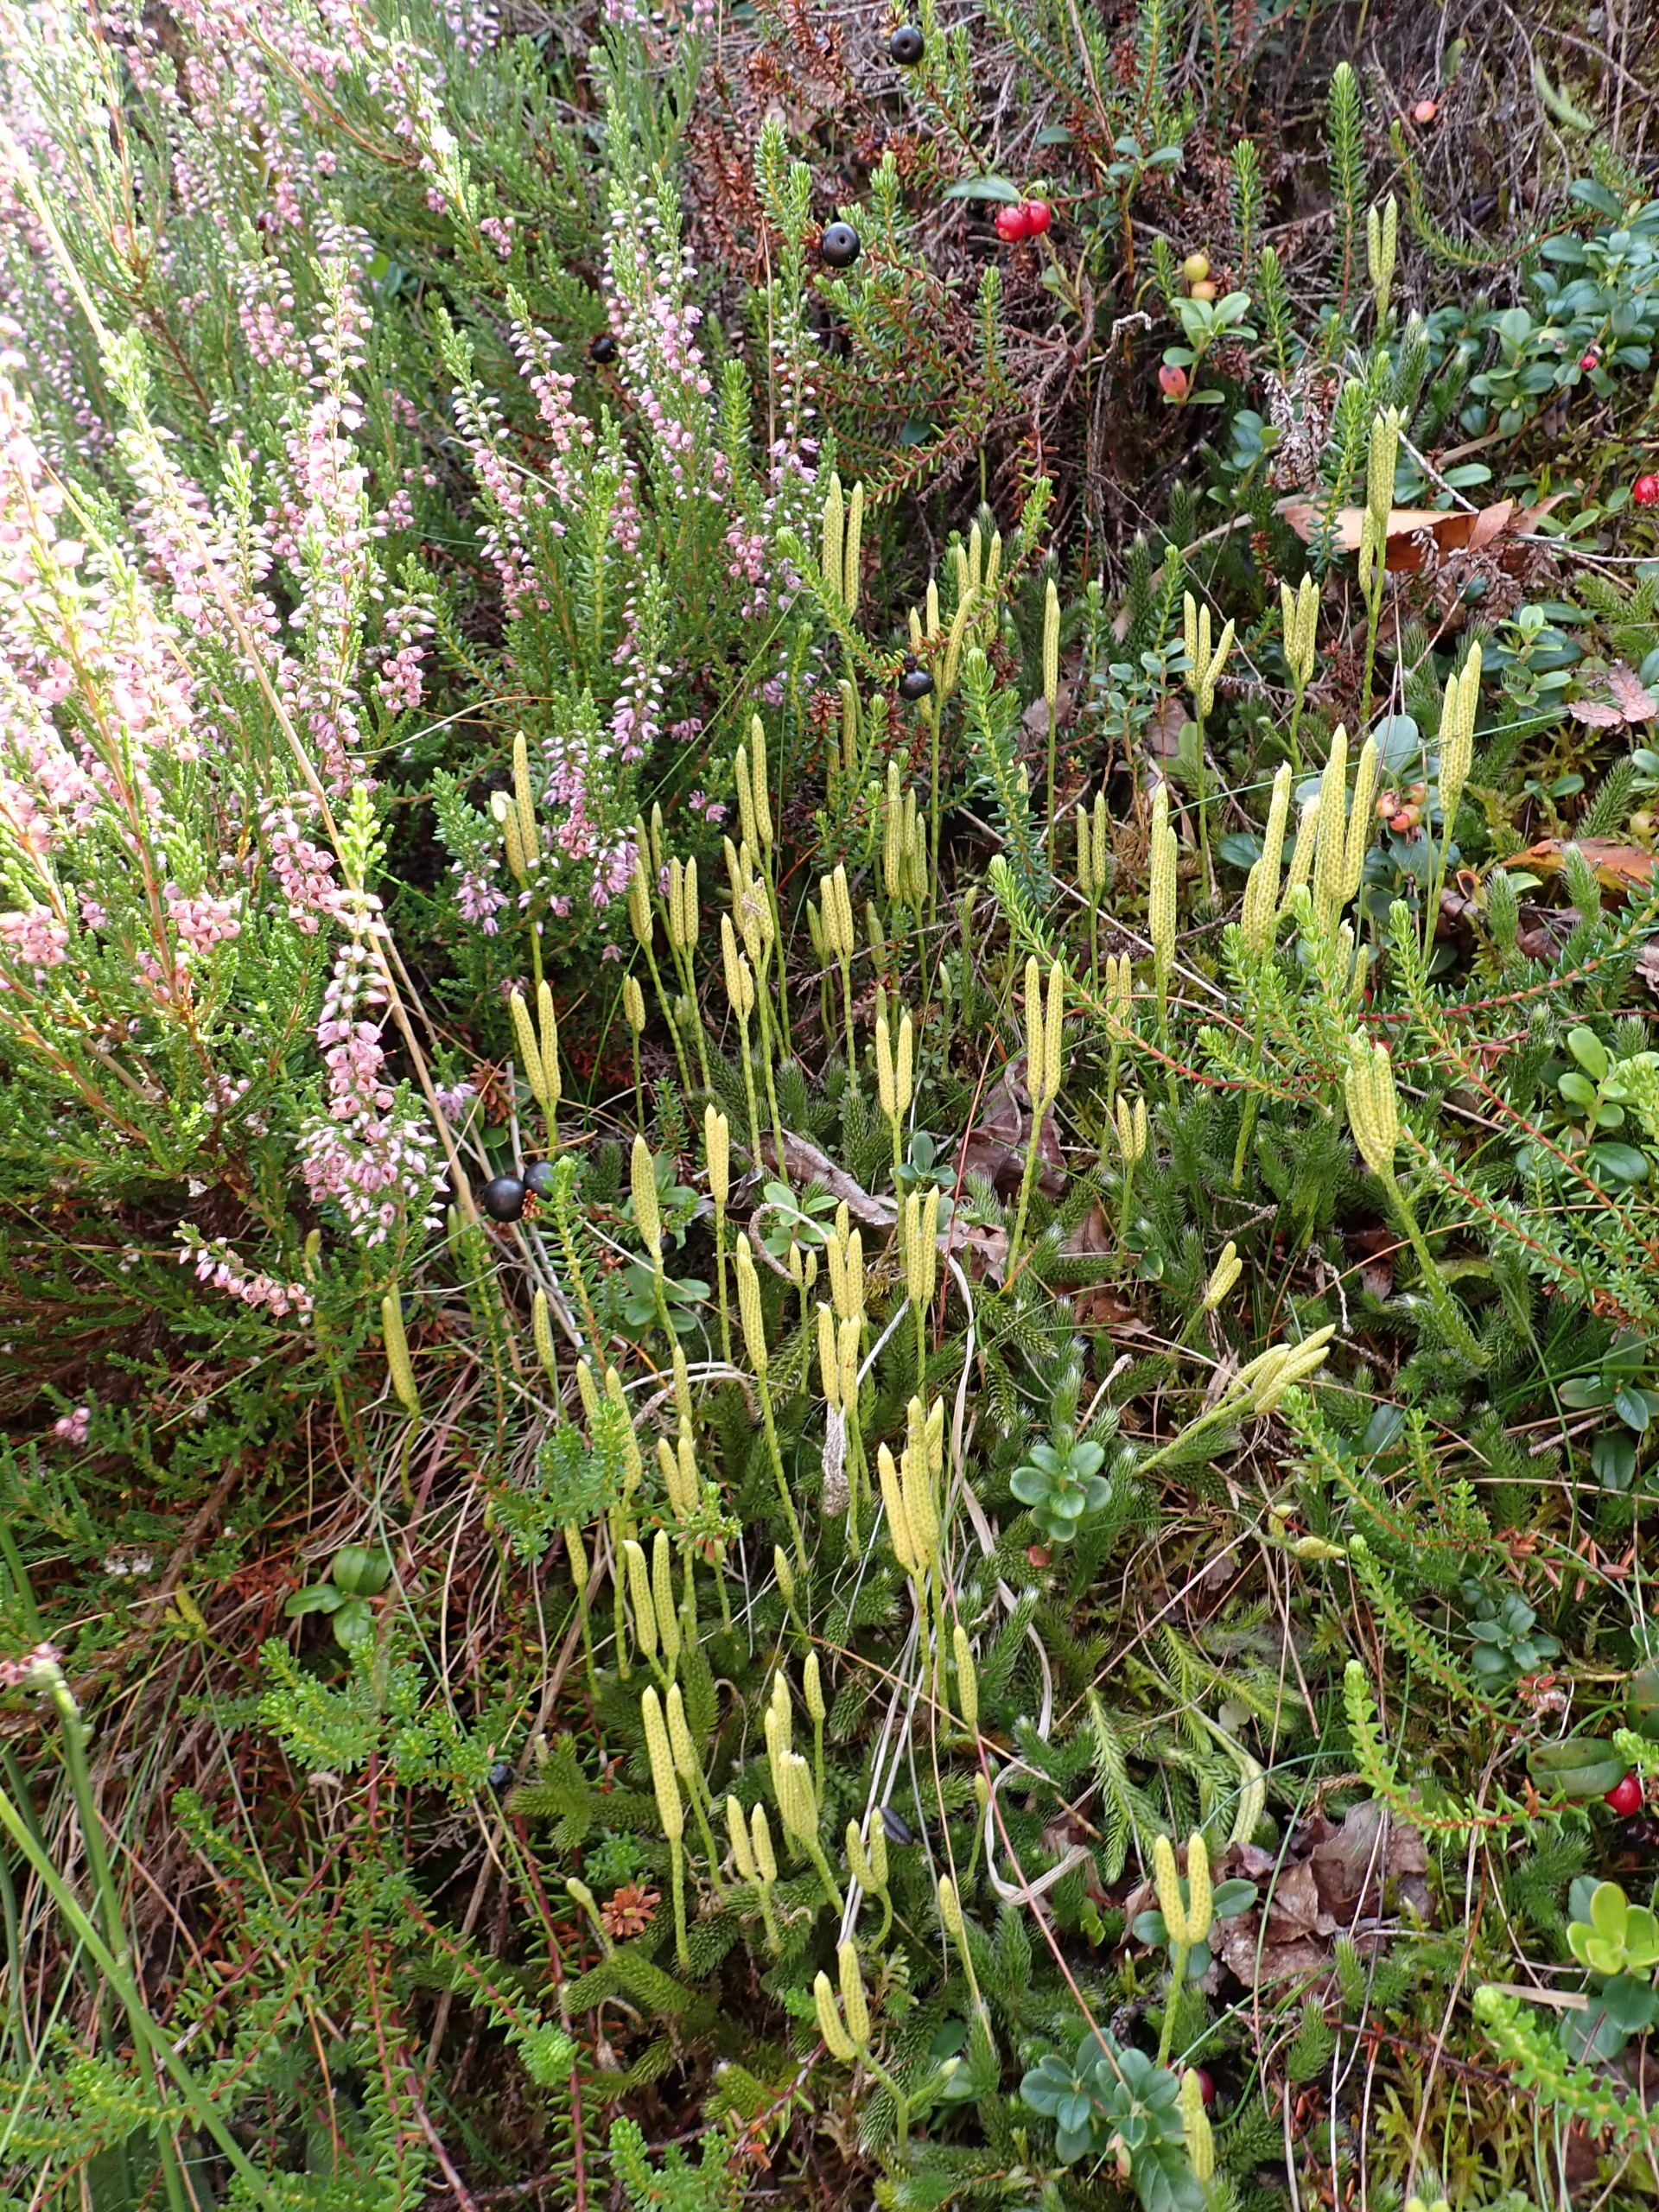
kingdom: Plantae
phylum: Tracheophyta
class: Lycopodiopsida
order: Lycopodiales
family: Lycopodiaceae
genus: Lycopodium
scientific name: Lycopodium clavatum
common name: Almindelig ulvefod
